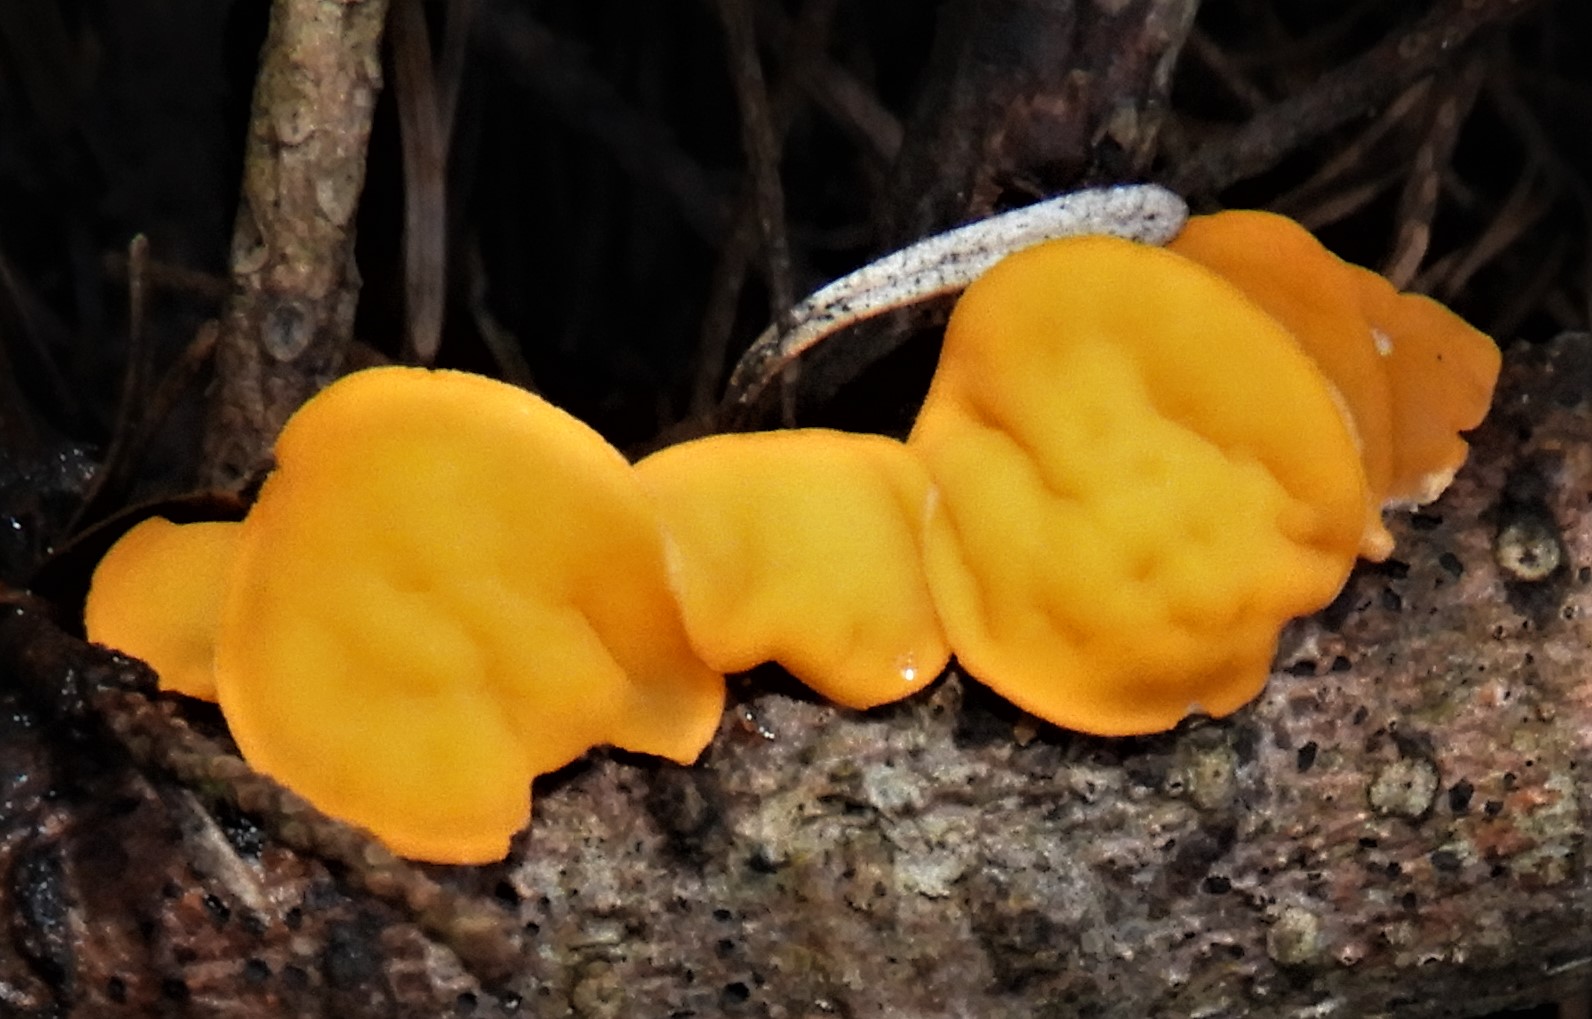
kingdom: Fungi
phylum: Ascomycota
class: Pezizomycetes
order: Pezizales
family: Sarcoscyphaceae
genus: Pithya
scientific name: Pithya vulgaris
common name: stor dukatbæger
